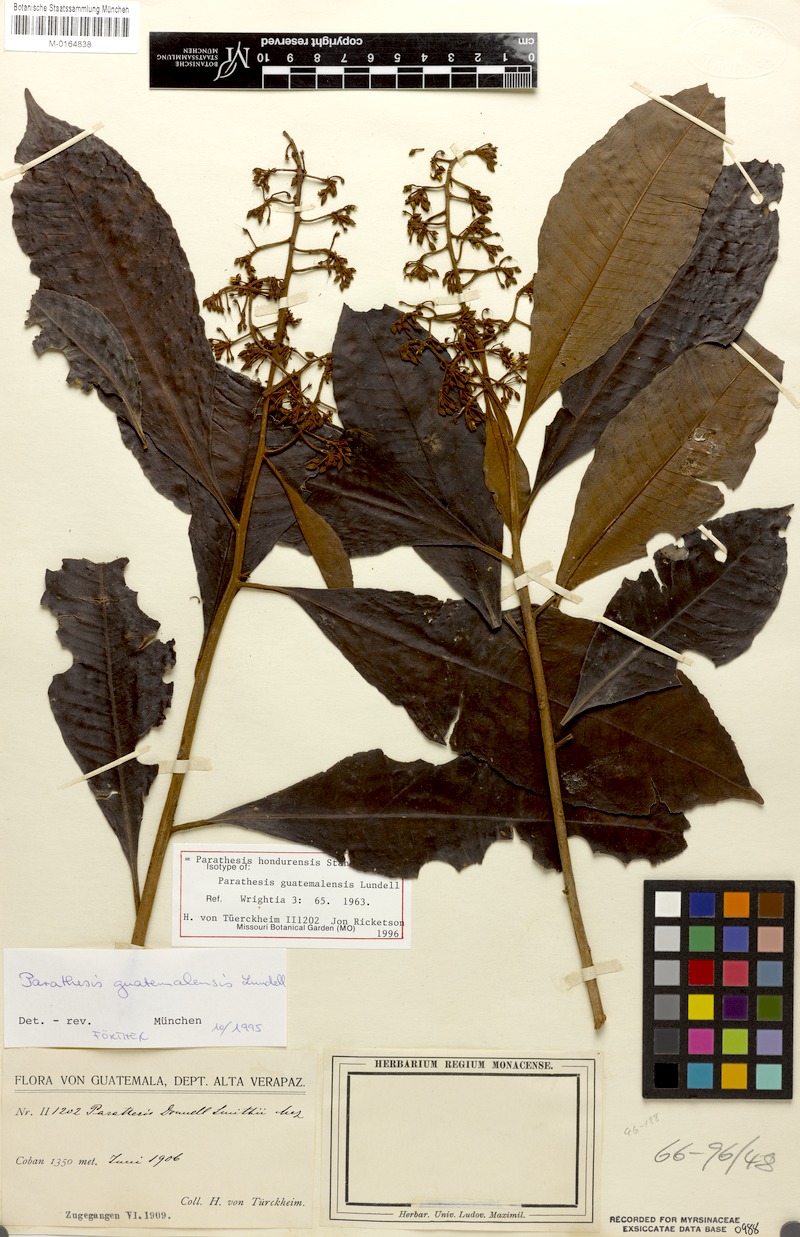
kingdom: Plantae
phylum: Tracheophyta
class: Magnoliopsida
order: Ericales
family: Primulaceae
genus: Parathesis
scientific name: Parathesis hondurensis
